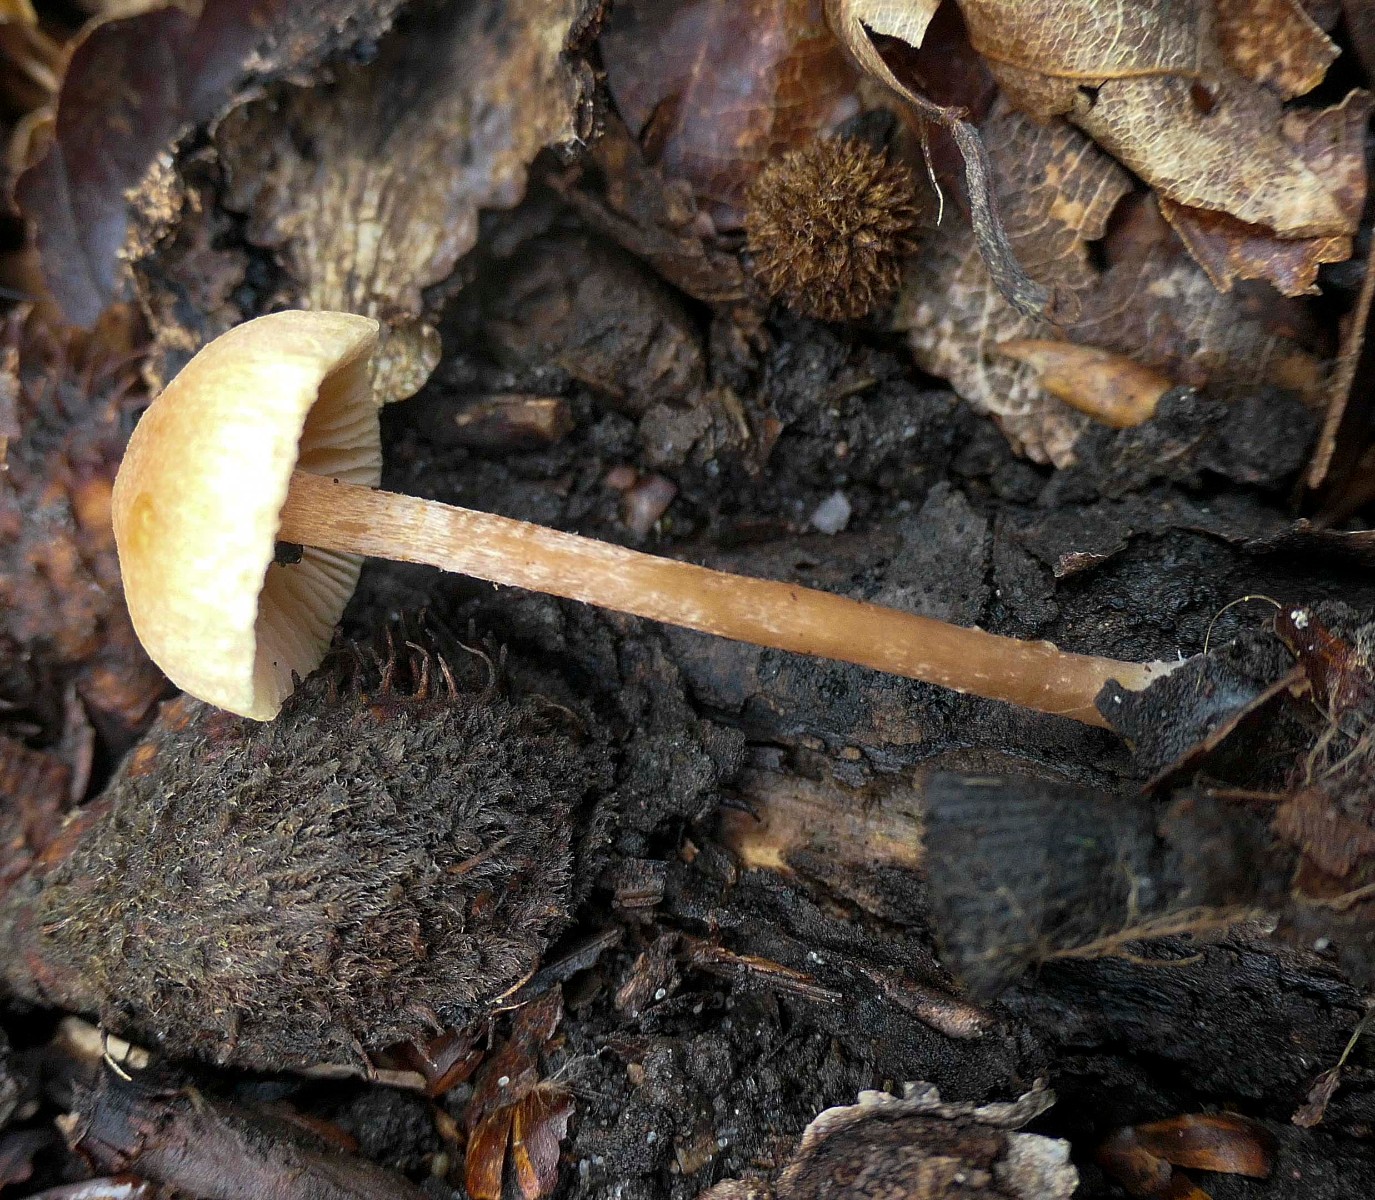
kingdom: Fungi
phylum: Basidiomycota
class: Agaricomycetes
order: Agaricales
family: Tubariaceae
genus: Tubaria
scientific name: Tubaria conspersa
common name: bleg fnughat
